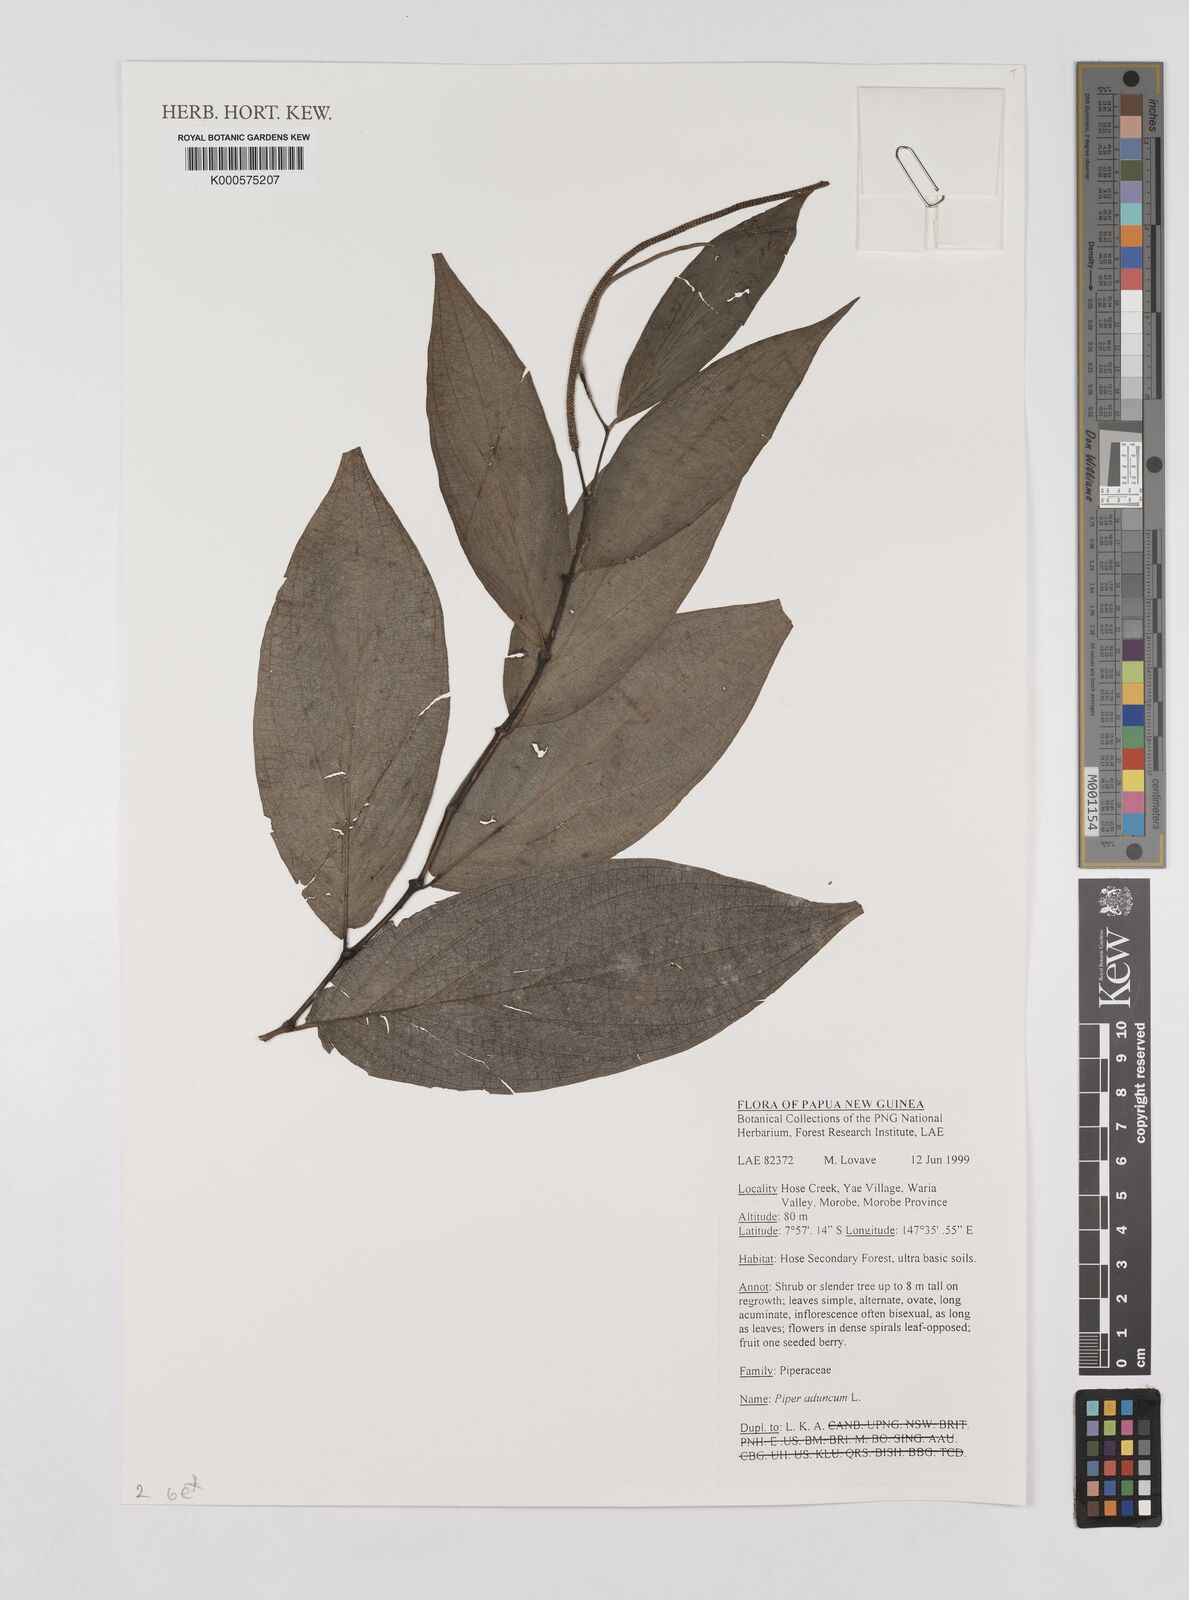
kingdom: Plantae
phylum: Tracheophyta
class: Magnoliopsida
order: Piperales
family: Piperaceae
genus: Piper
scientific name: Piper aduncum
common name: Spiked pepper
